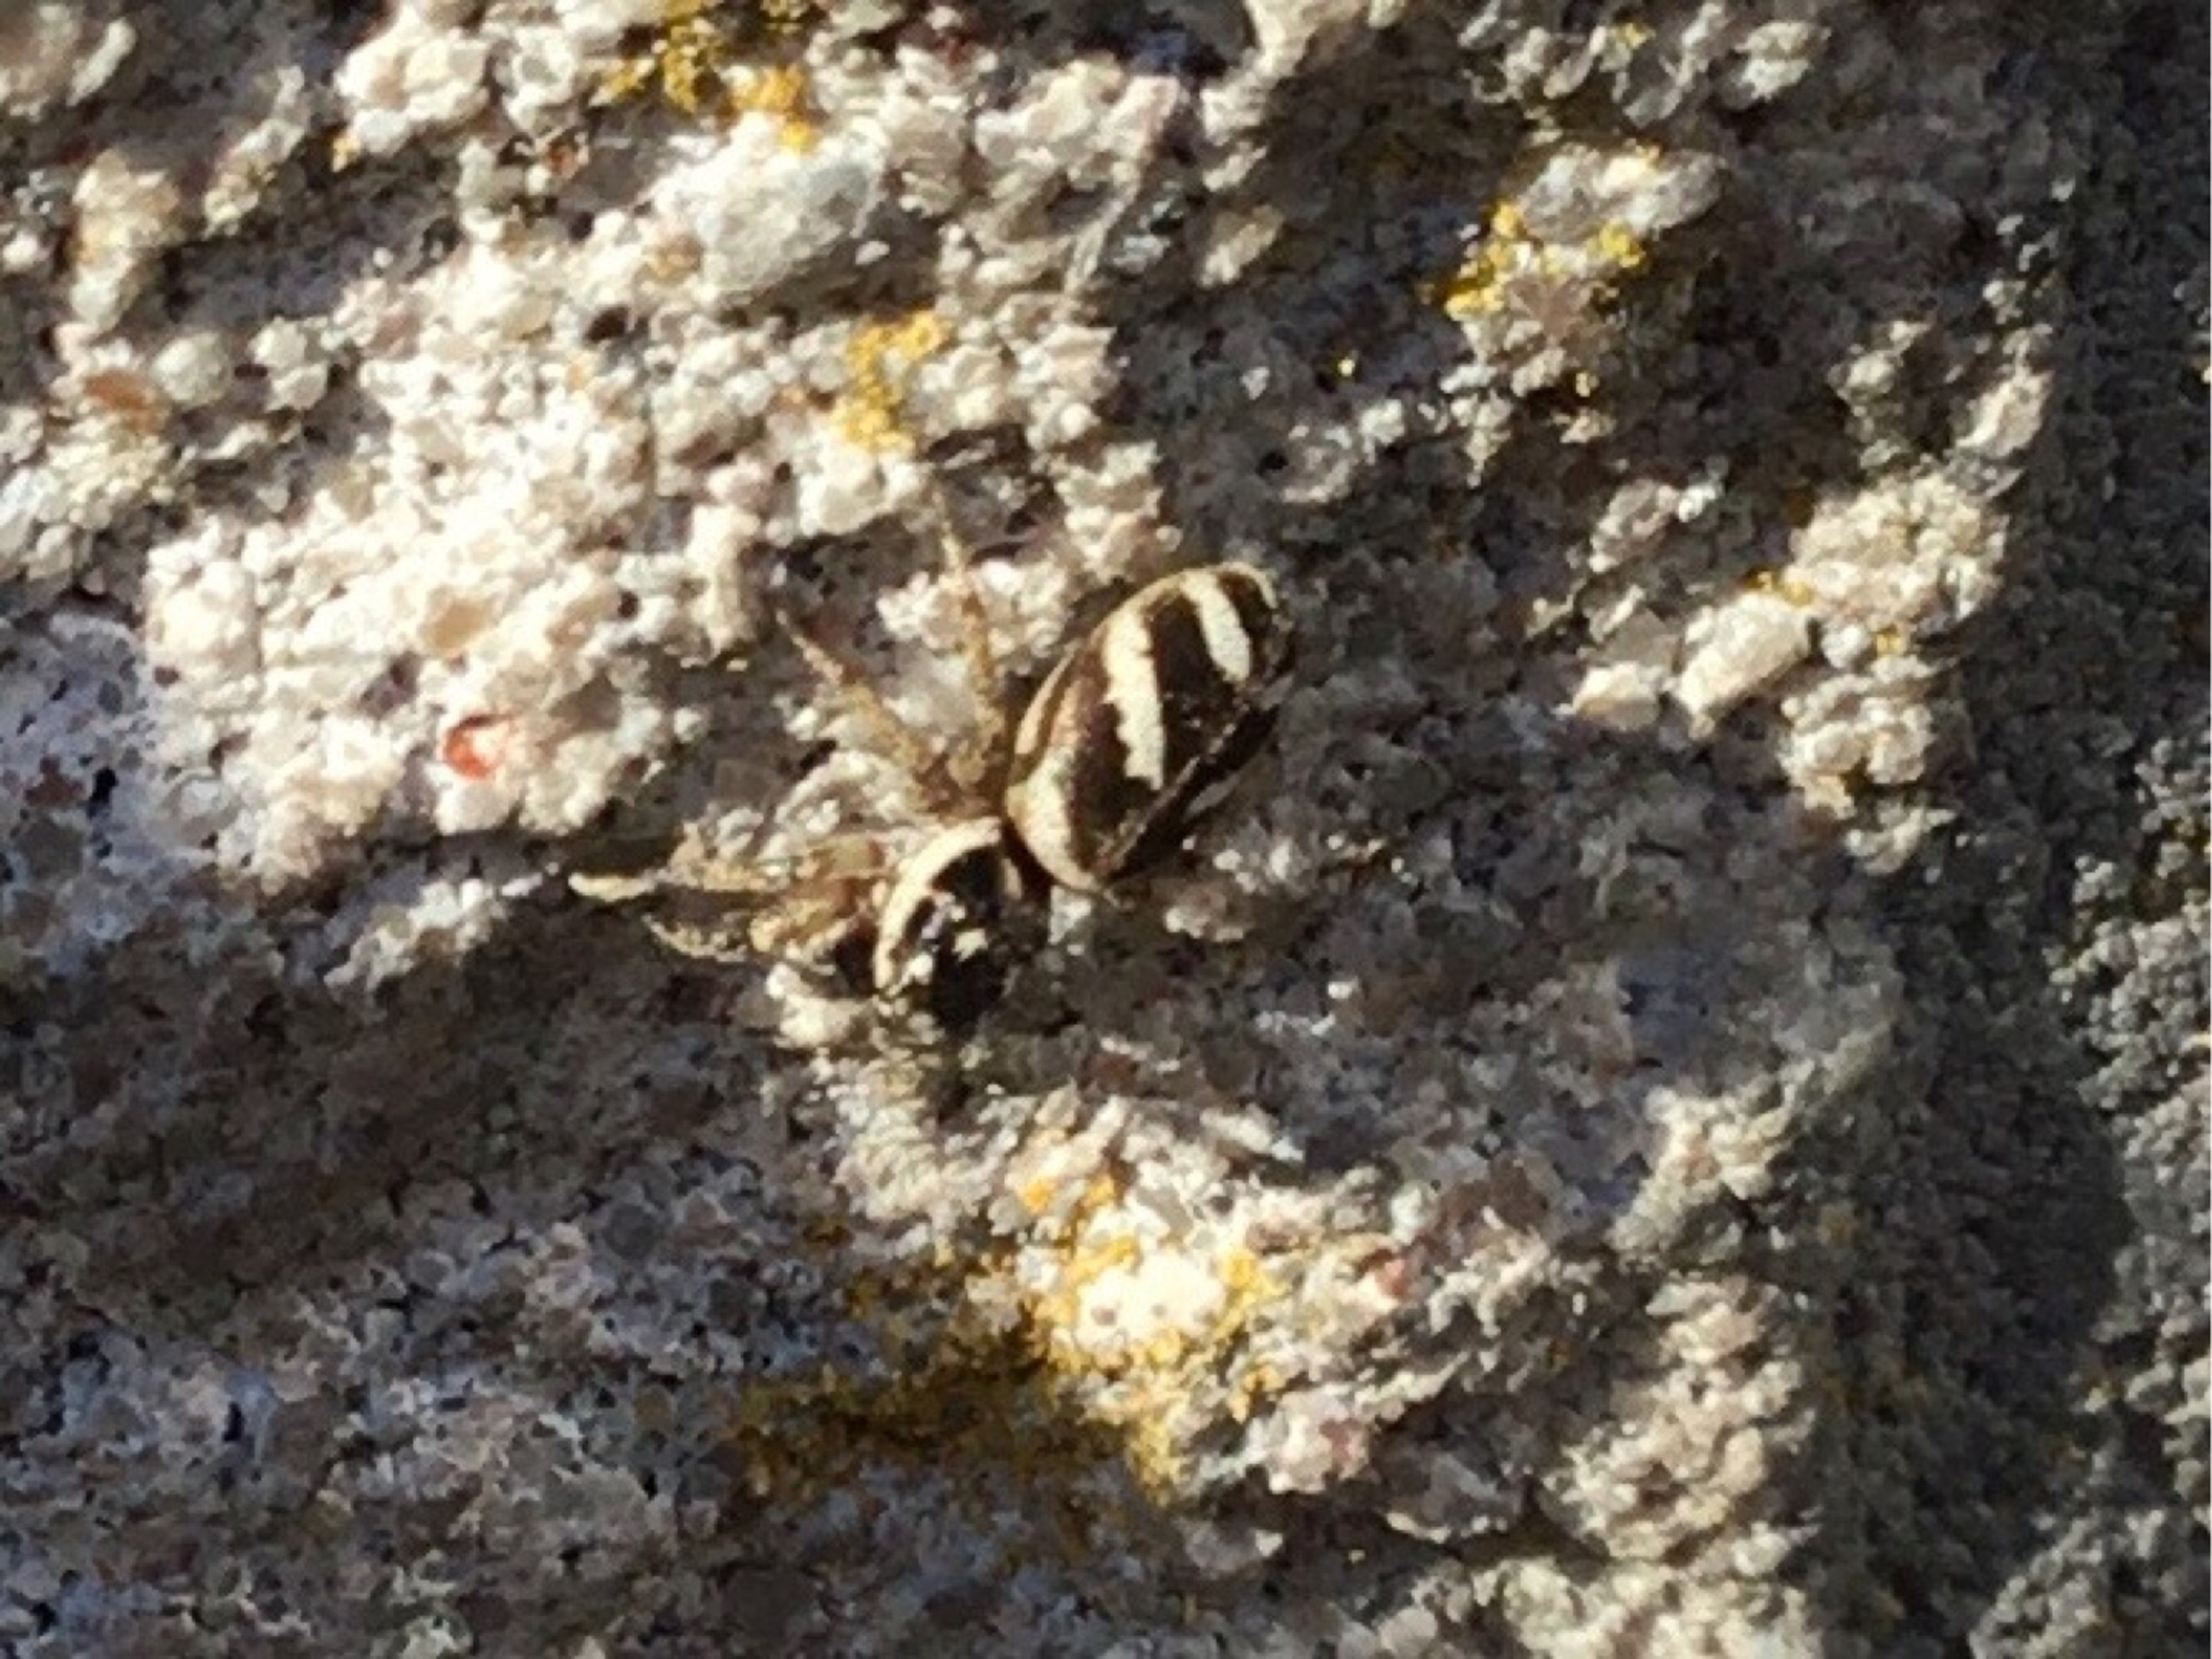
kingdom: Animalia
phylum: Arthropoda
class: Arachnida
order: Araneae
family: Salticidae
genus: Salticus
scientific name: Salticus scenicus
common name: Almindelig zebraedderkop
